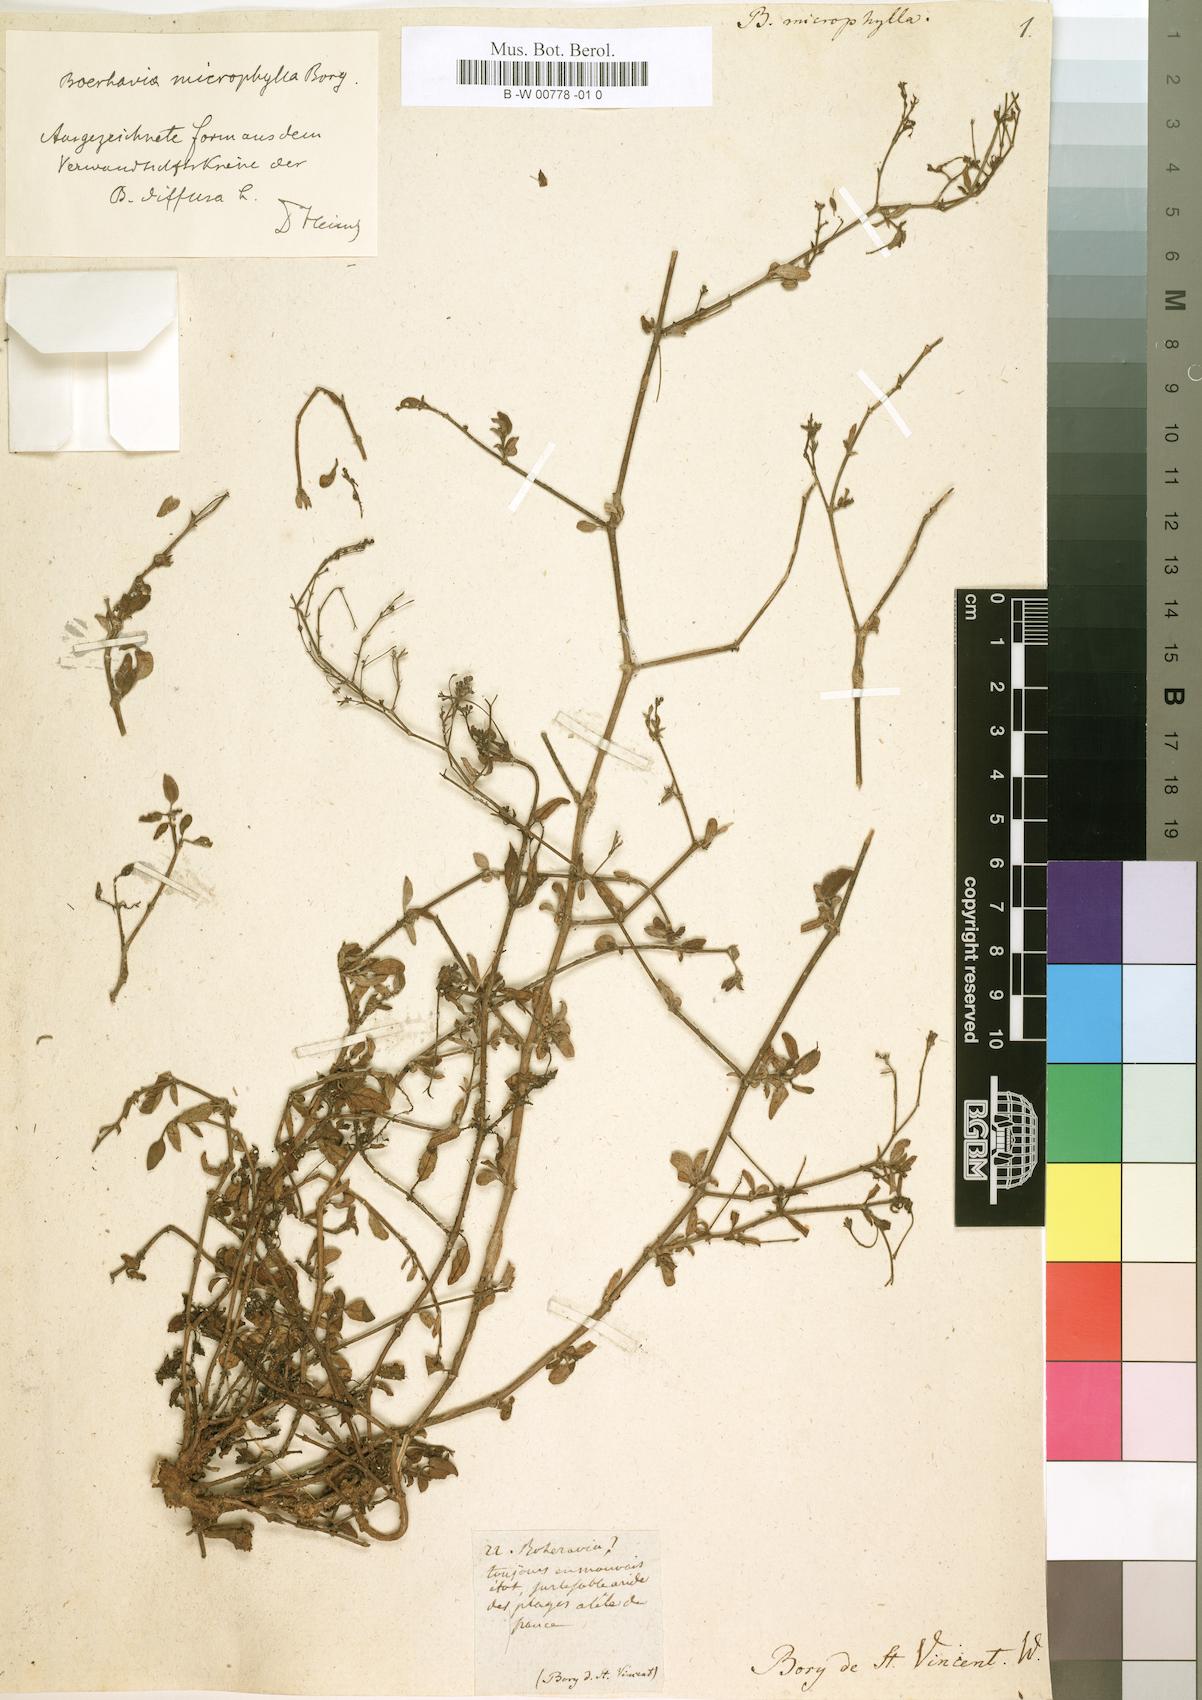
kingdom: Plantae
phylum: Tracheophyta
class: Magnoliopsida
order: Caryophyllales
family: Nyctaginaceae
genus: Boerhavia
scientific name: Boerhavia microphylla
